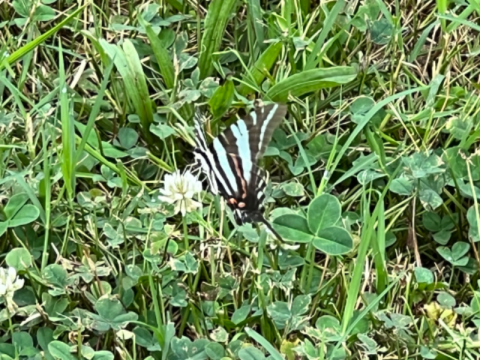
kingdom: Animalia
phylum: Arthropoda
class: Insecta
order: Lepidoptera
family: Papilionidae
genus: Protographium
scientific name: Protographium marcellus
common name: Zebra Swallowtail
